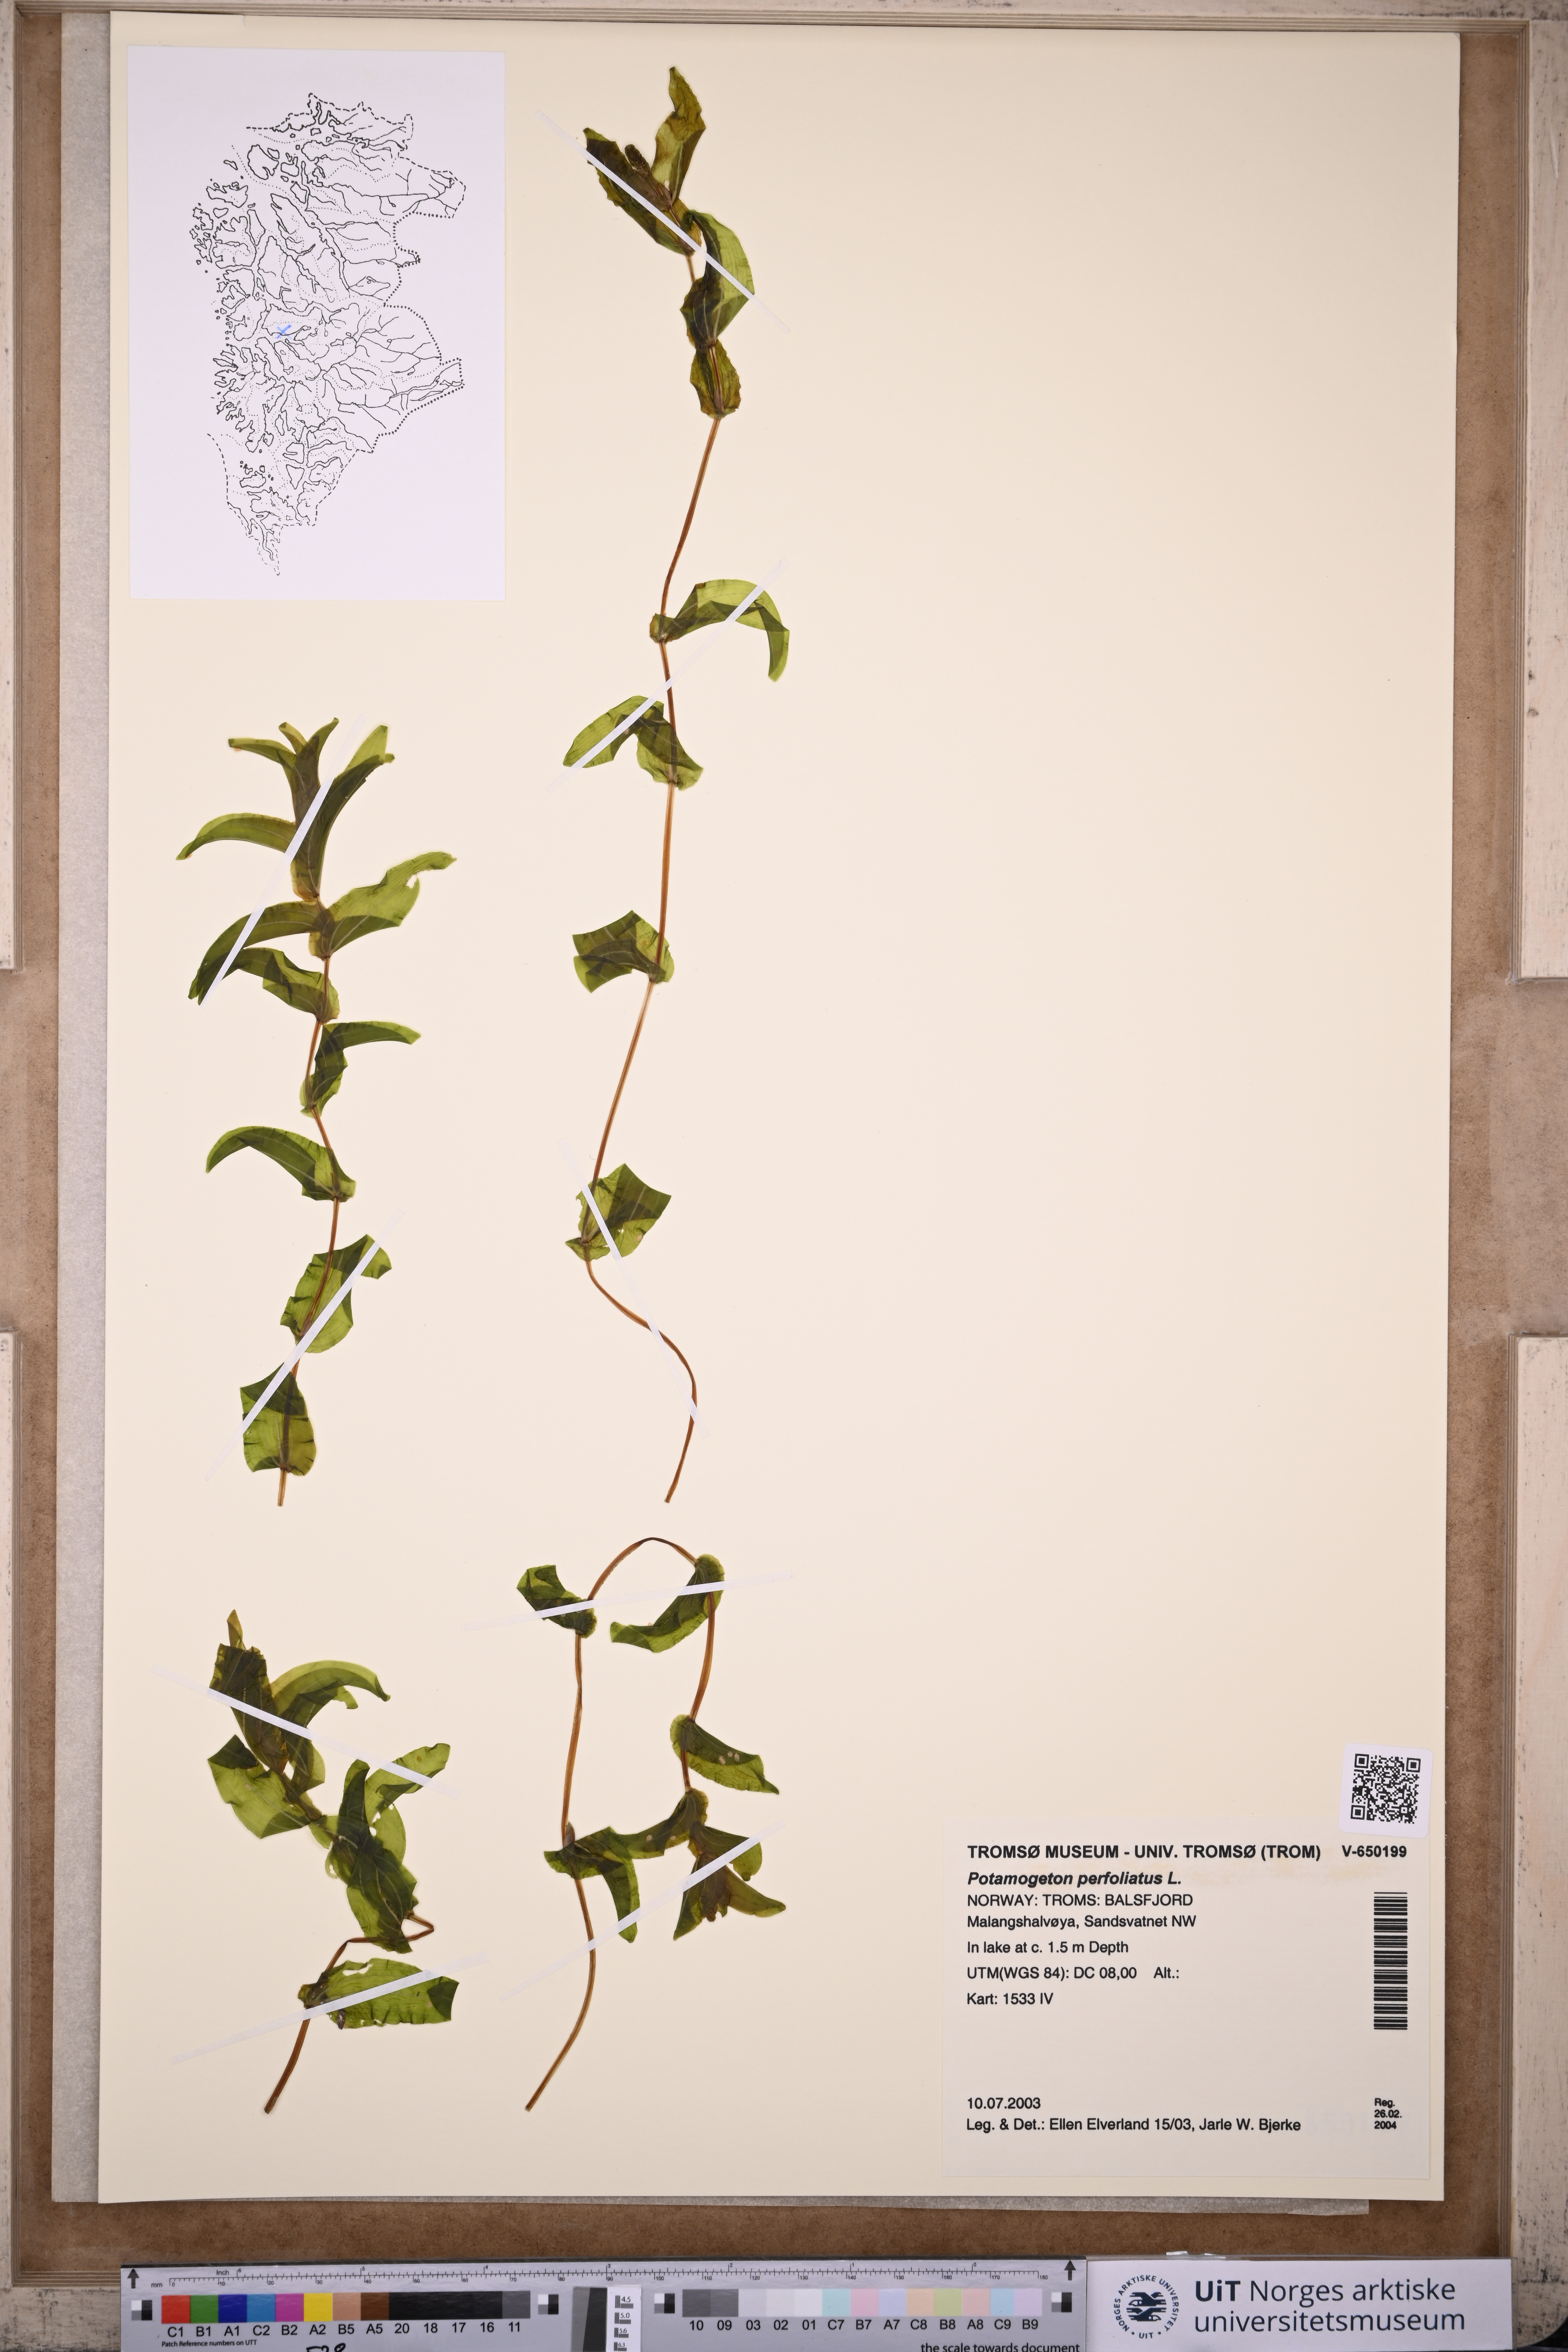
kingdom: Plantae
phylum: Tracheophyta
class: Liliopsida
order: Alismatales
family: Potamogetonaceae
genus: Potamogeton
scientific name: Potamogeton perfoliatus
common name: Perfoliate pondweed
